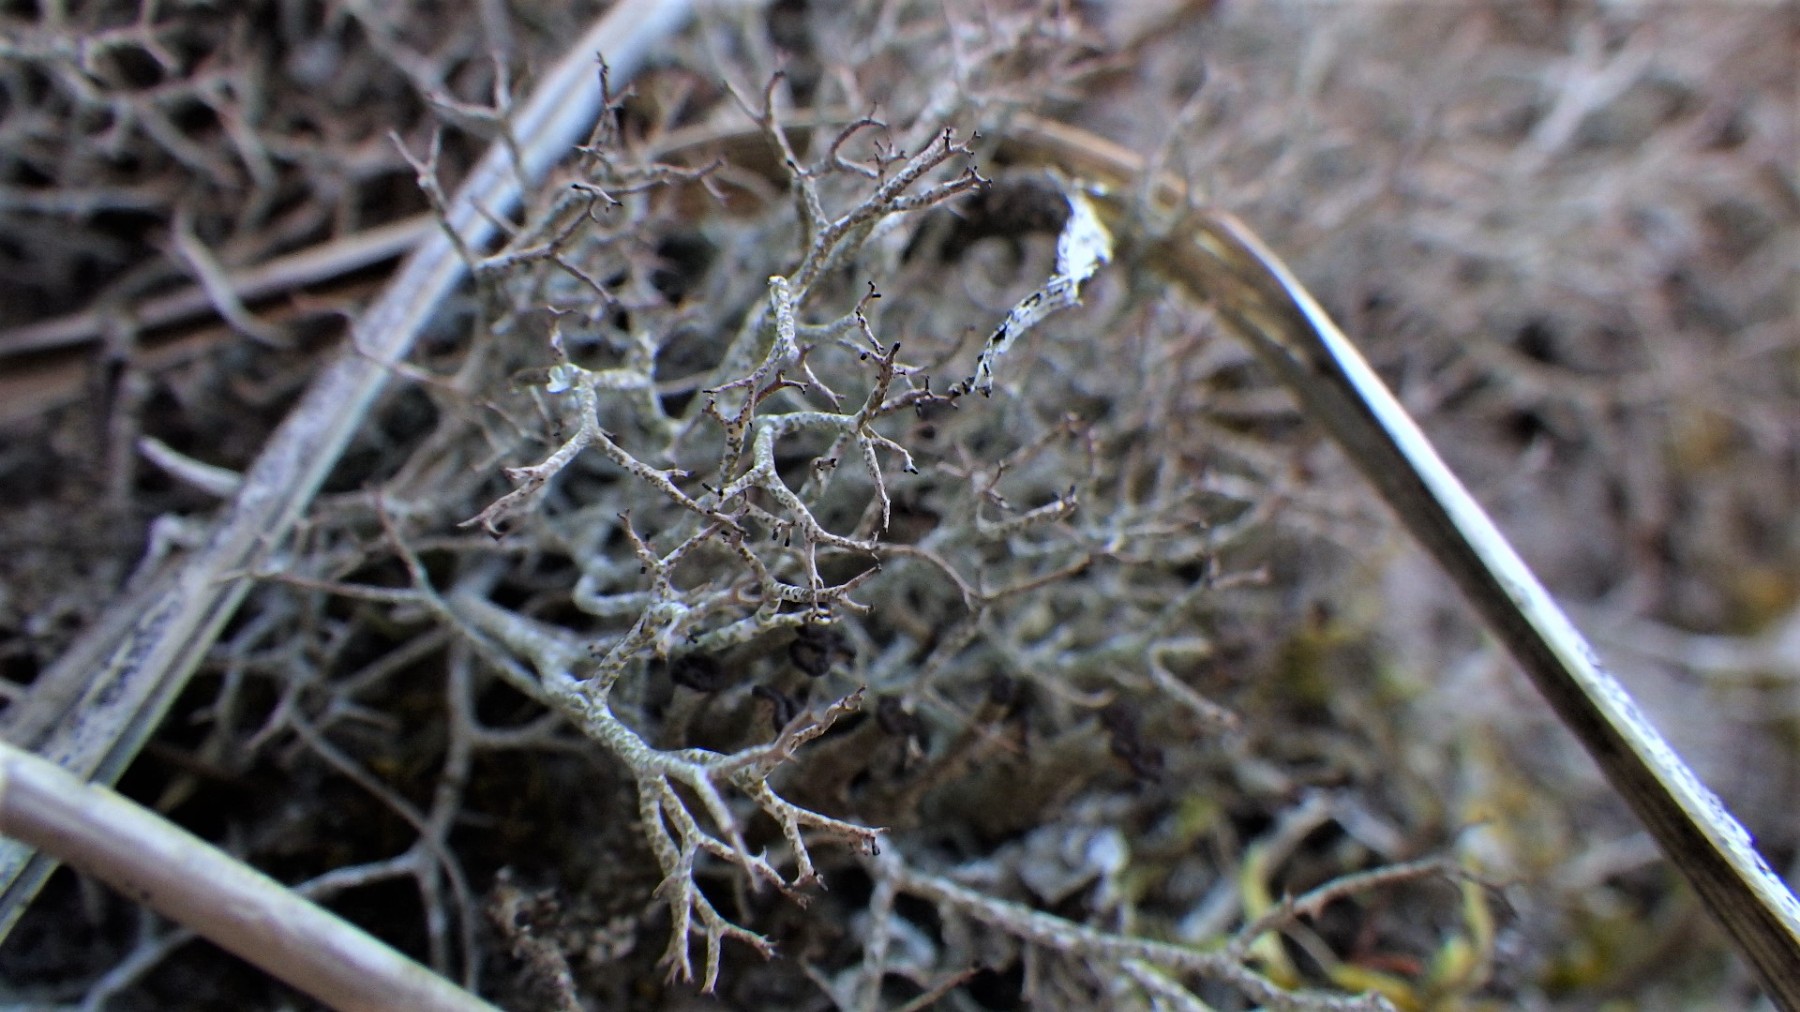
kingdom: Fungi
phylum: Ascomycota
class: Lecanoromycetes
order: Lecanorales
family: Cladoniaceae
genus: Cladonia
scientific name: Cladonia rangiformis
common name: spættet bægerlav
